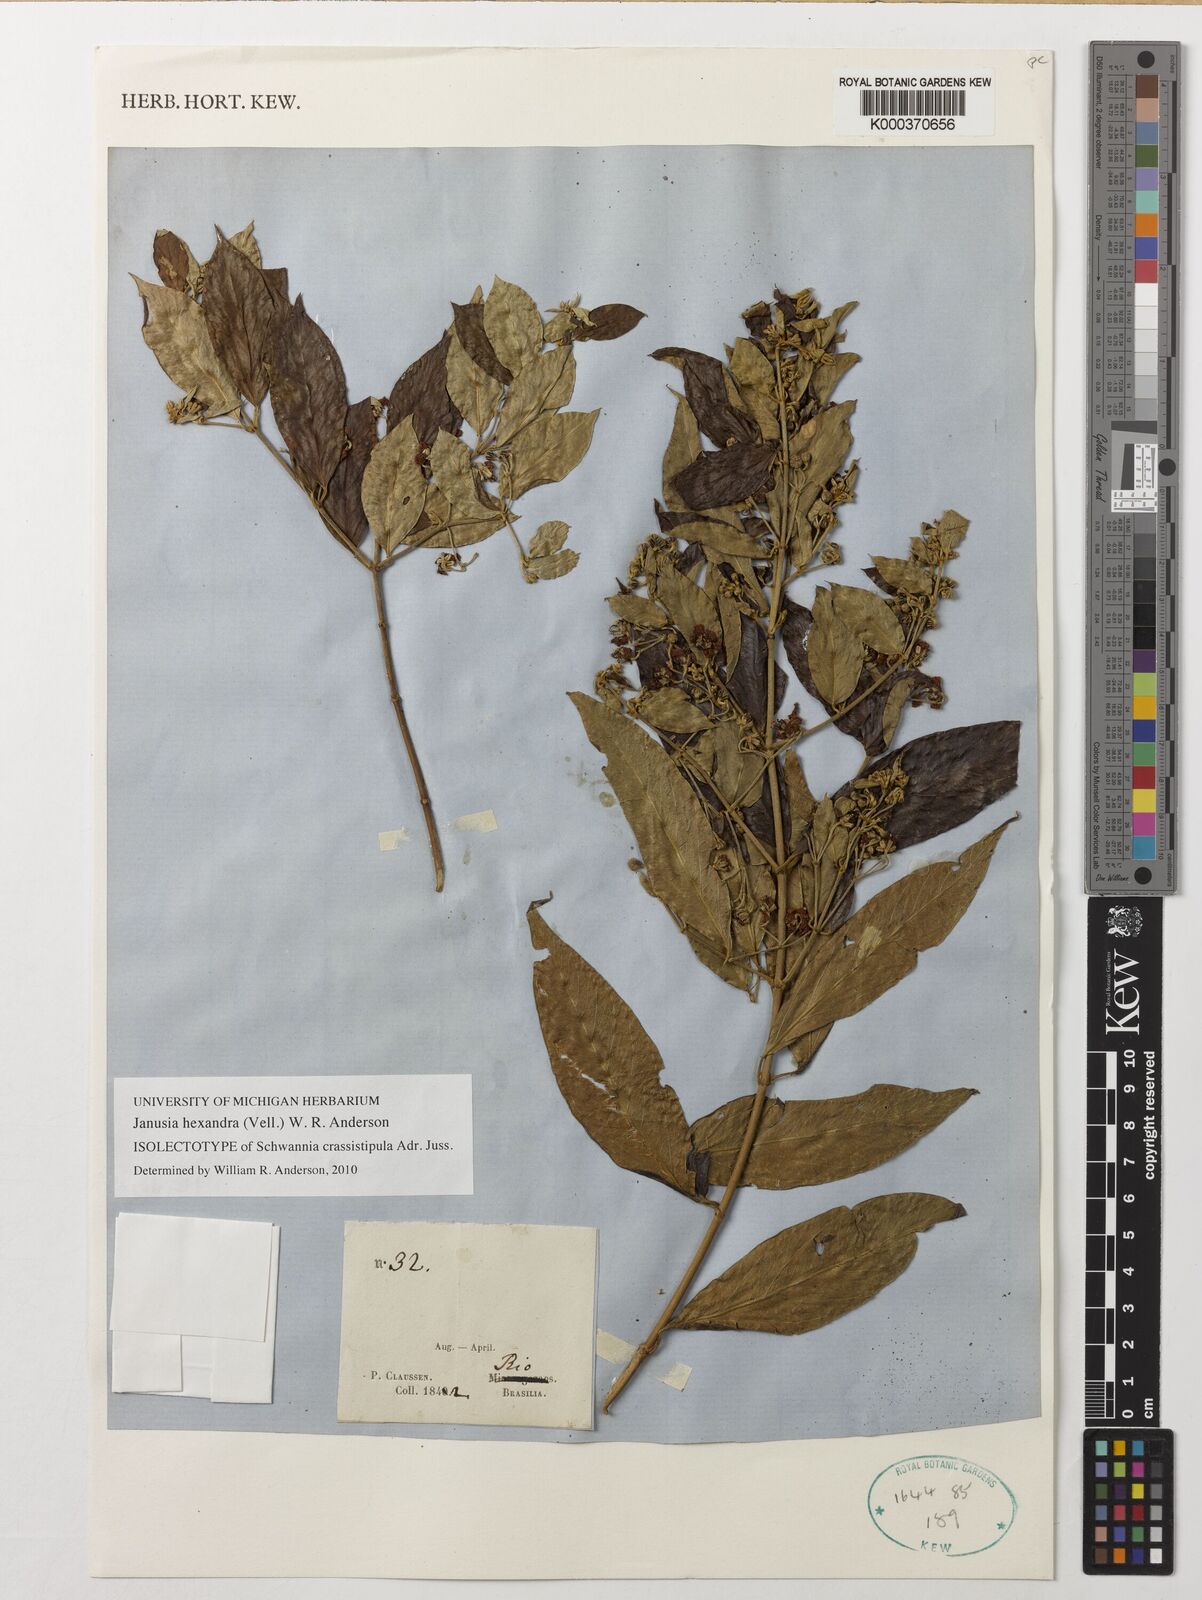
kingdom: Plantae
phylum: Tracheophyta
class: Magnoliopsida
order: Malpighiales
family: Malpighiaceae
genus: Janusia
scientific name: Janusia hexandra
